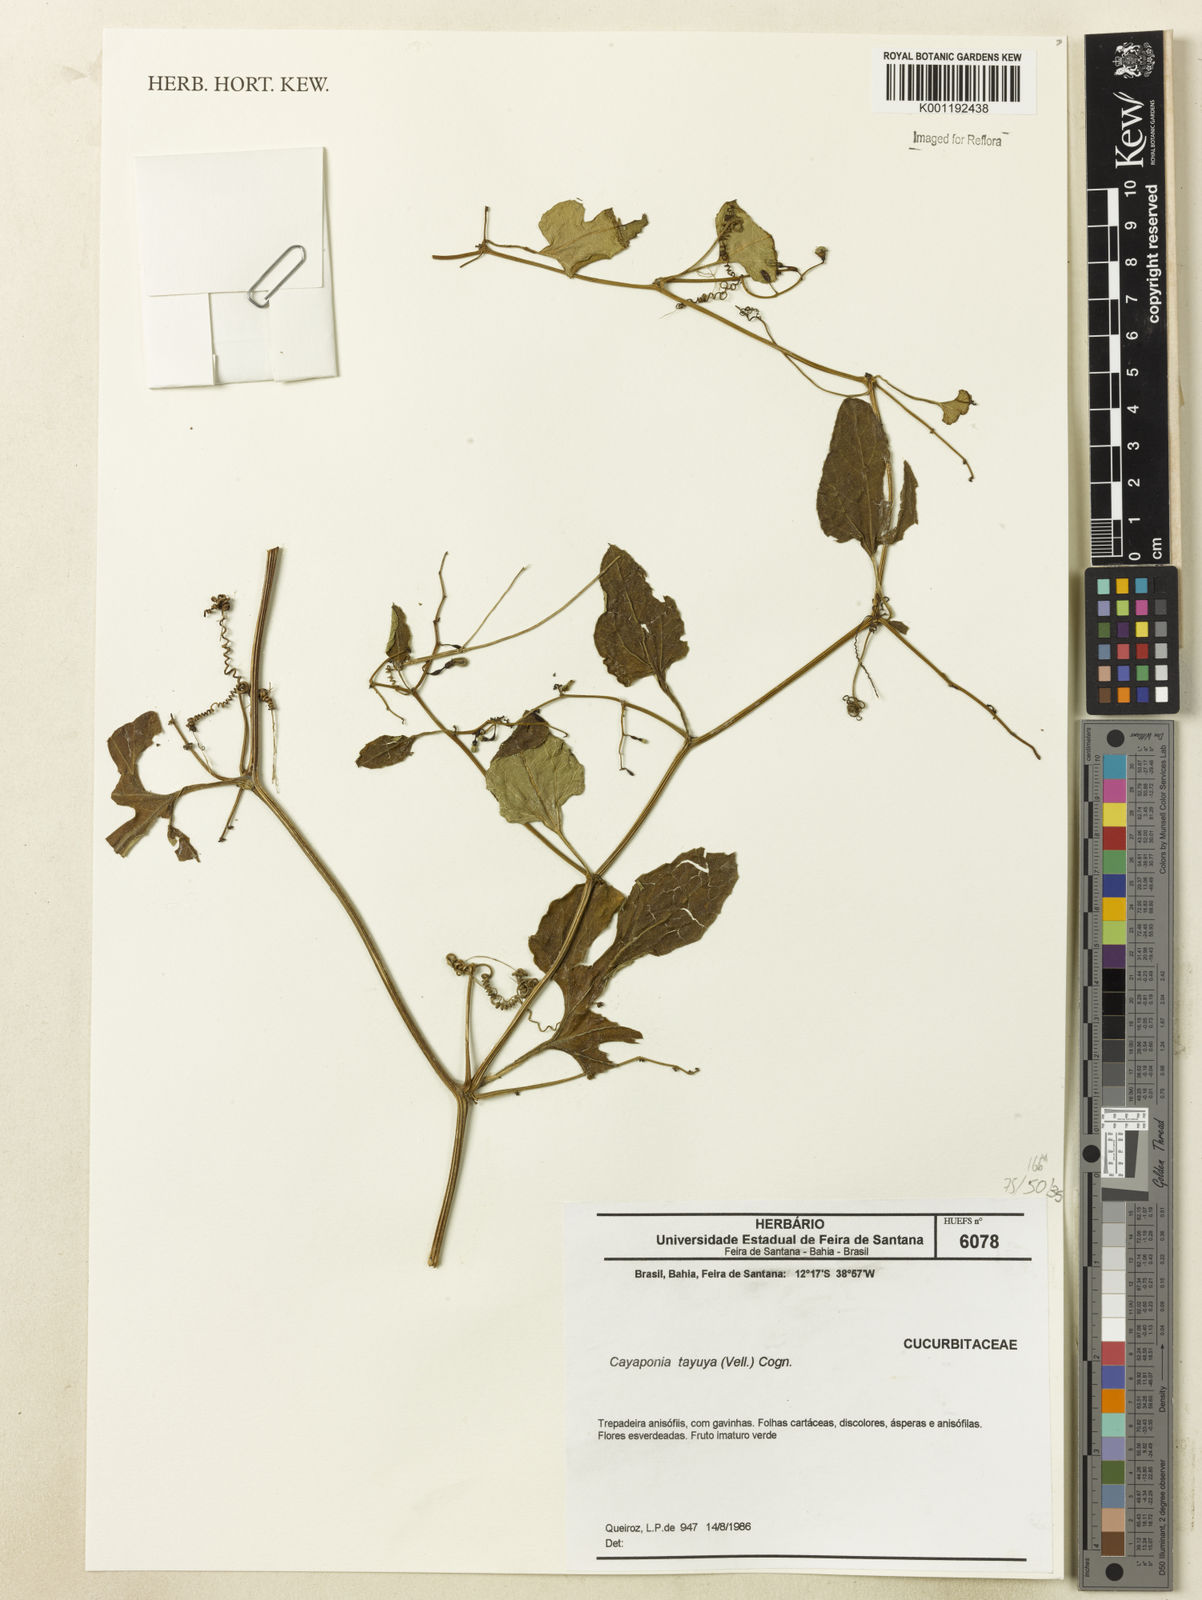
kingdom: Plantae
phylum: Tracheophyta
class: Magnoliopsida
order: Cucurbitales
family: Cucurbitaceae
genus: Cayaponia
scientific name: Cayaponia tayuya
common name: Tayuya
